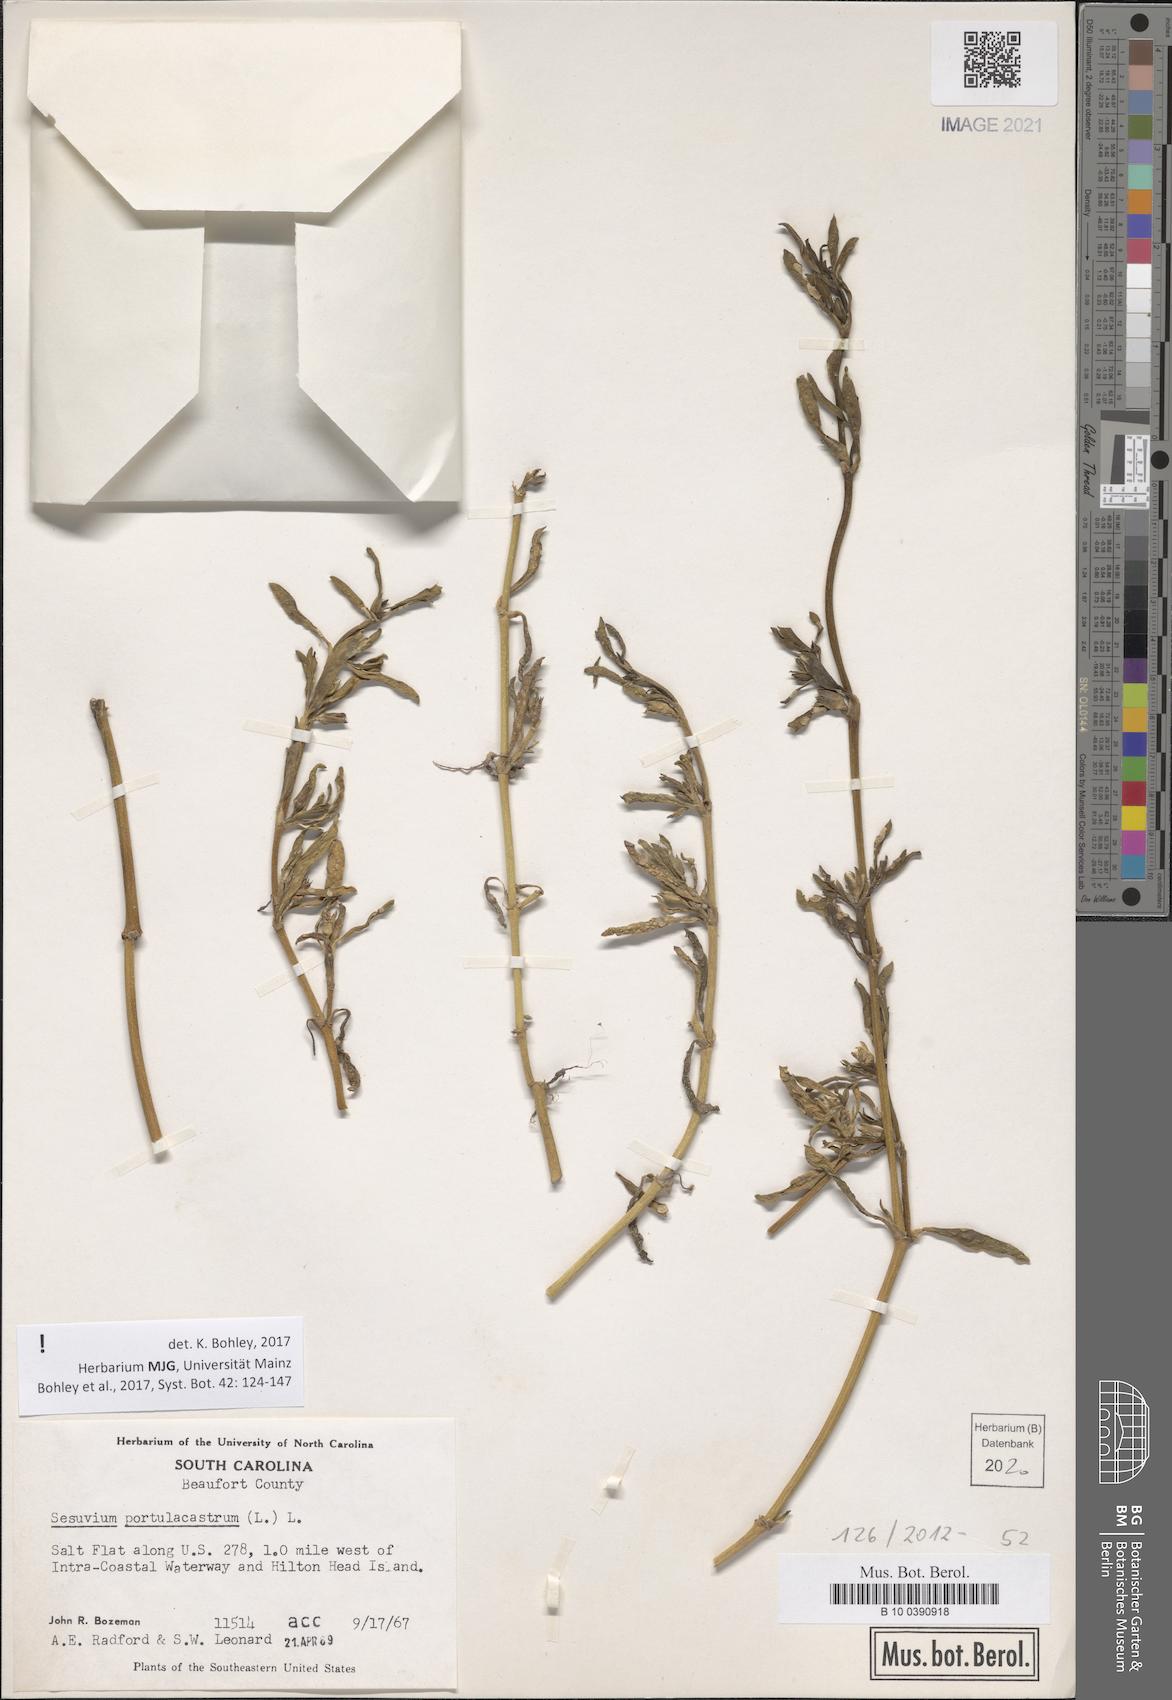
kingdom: Plantae
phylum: Tracheophyta
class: Magnoliopsida
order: Caryophyllales
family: Aizoaceae
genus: Sesuvium
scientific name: Sesuvium portulacastrum
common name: Sea-purslane
